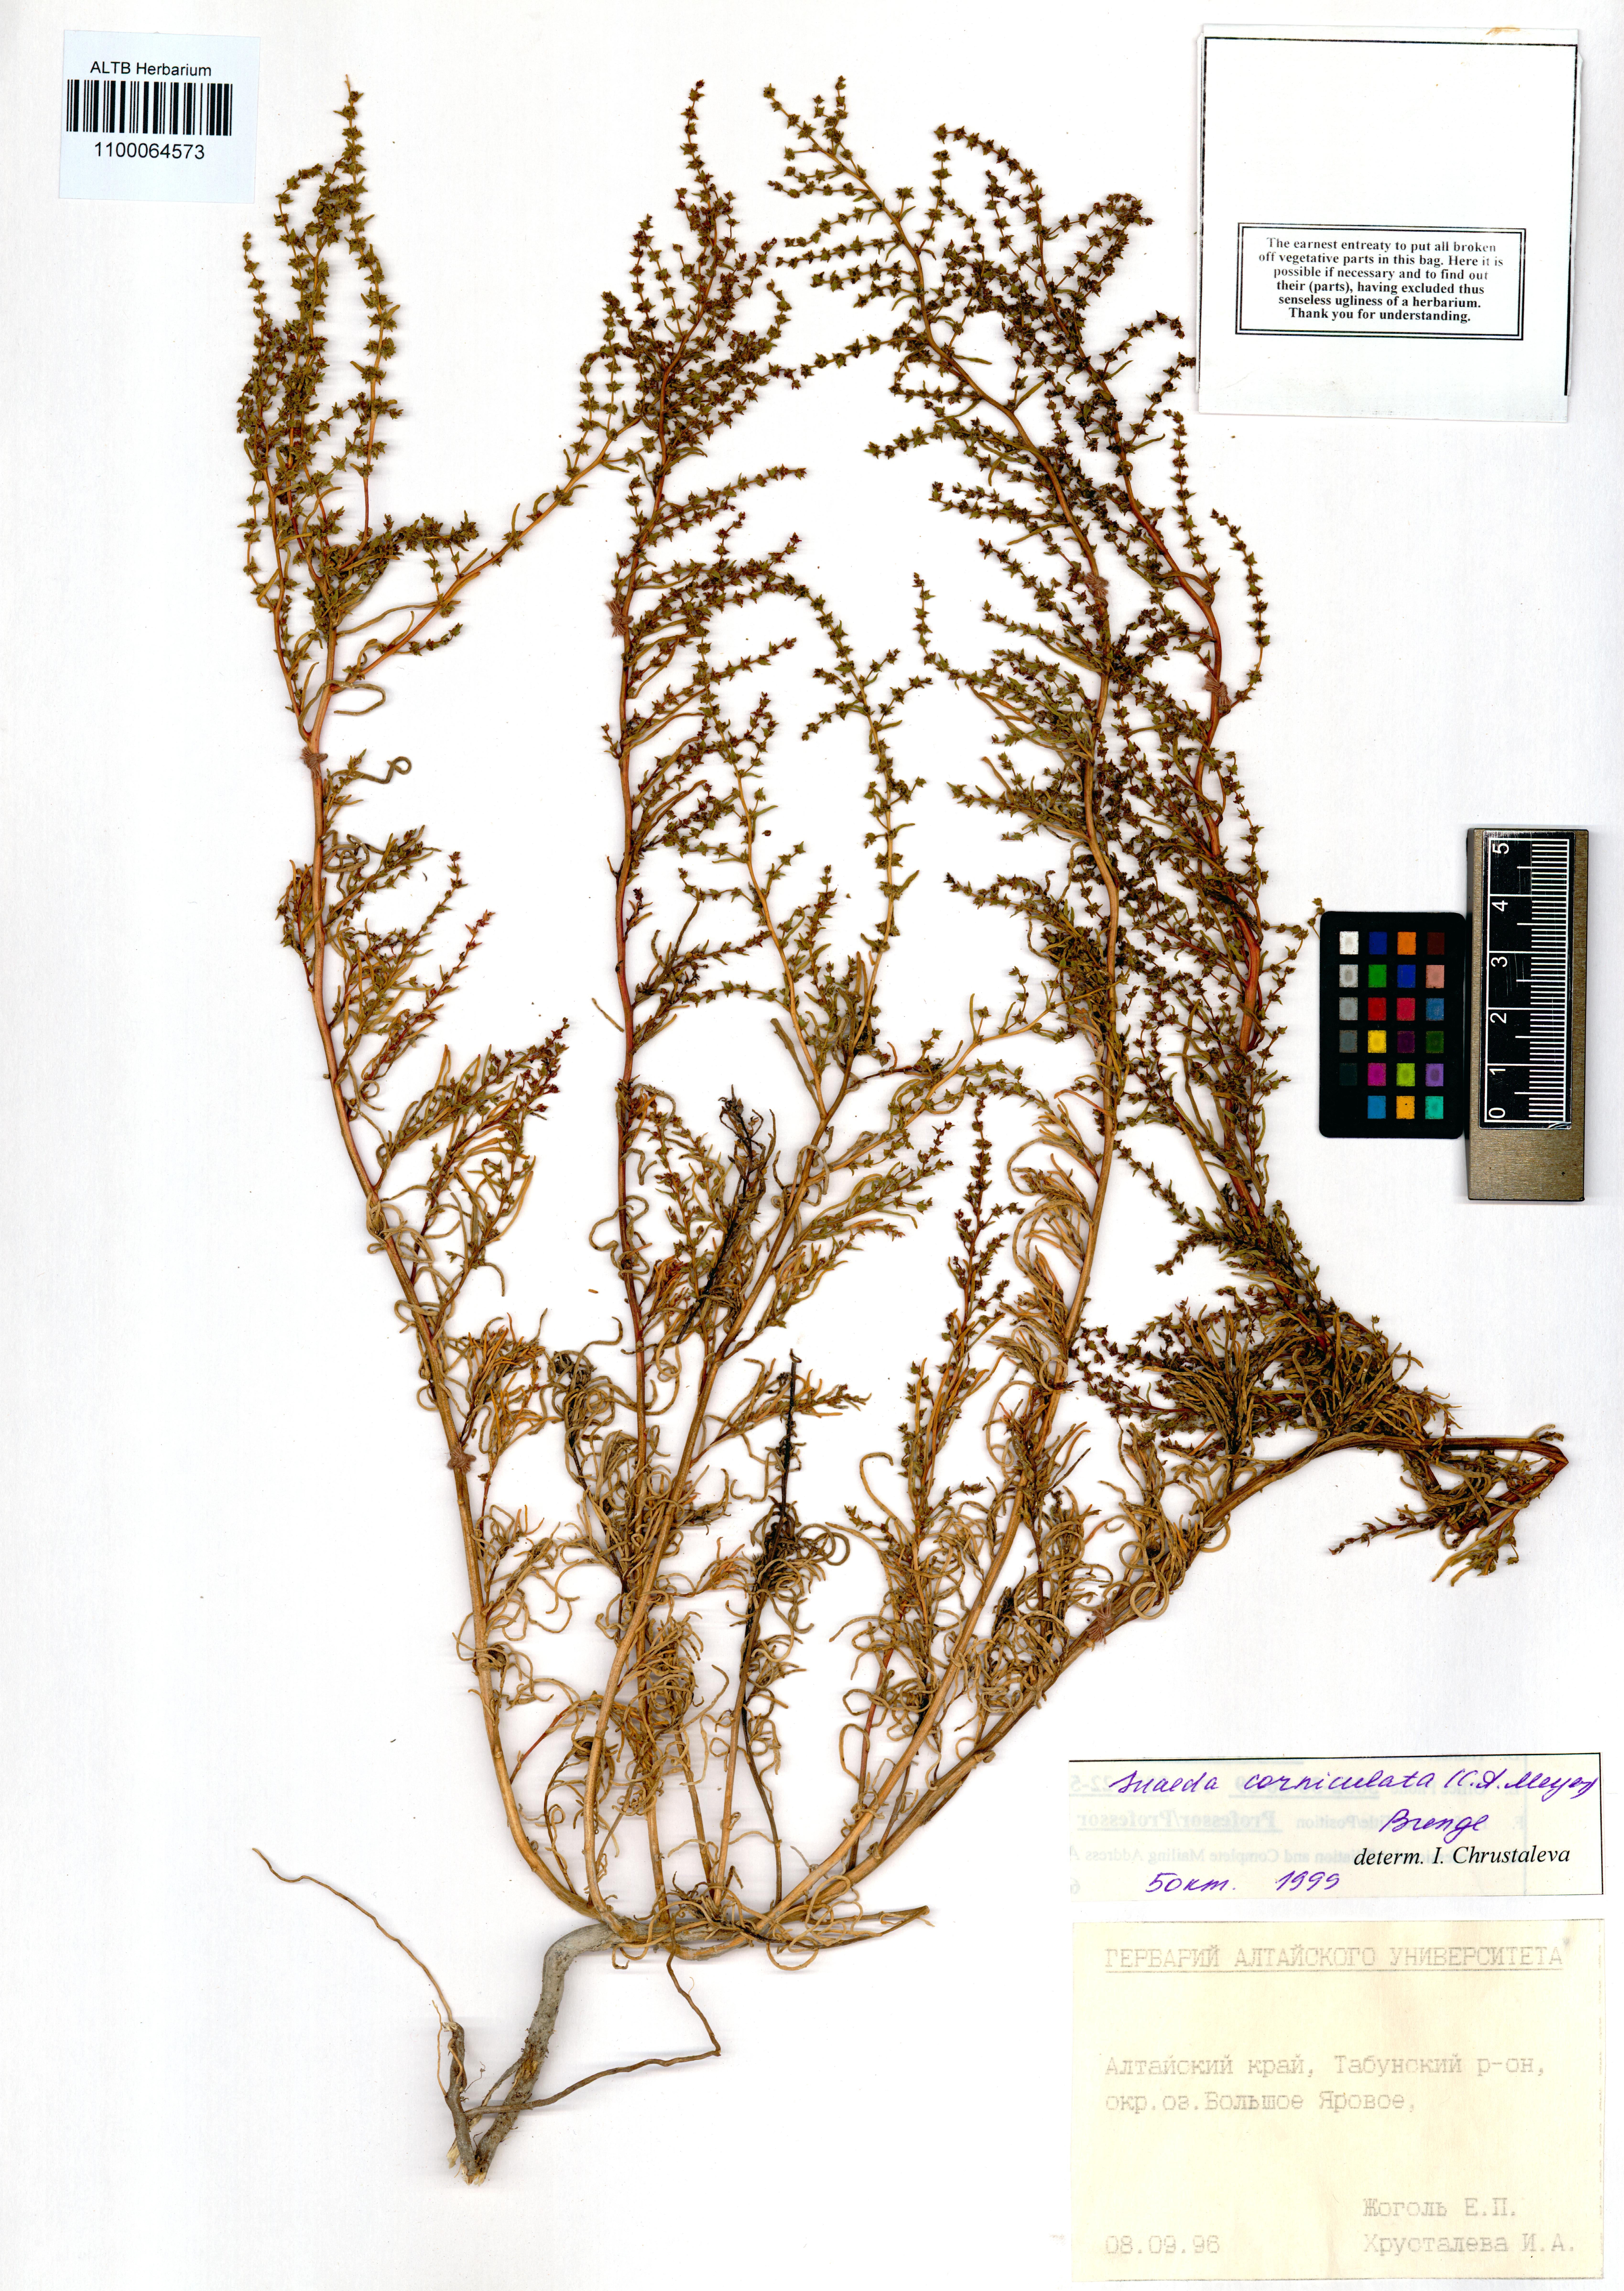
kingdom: Plantae
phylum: Tracheophyta
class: Magnoliopsida
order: Caryophyllales
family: Amaranthaceae
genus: Suaeda
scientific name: Suaeda corniculata
